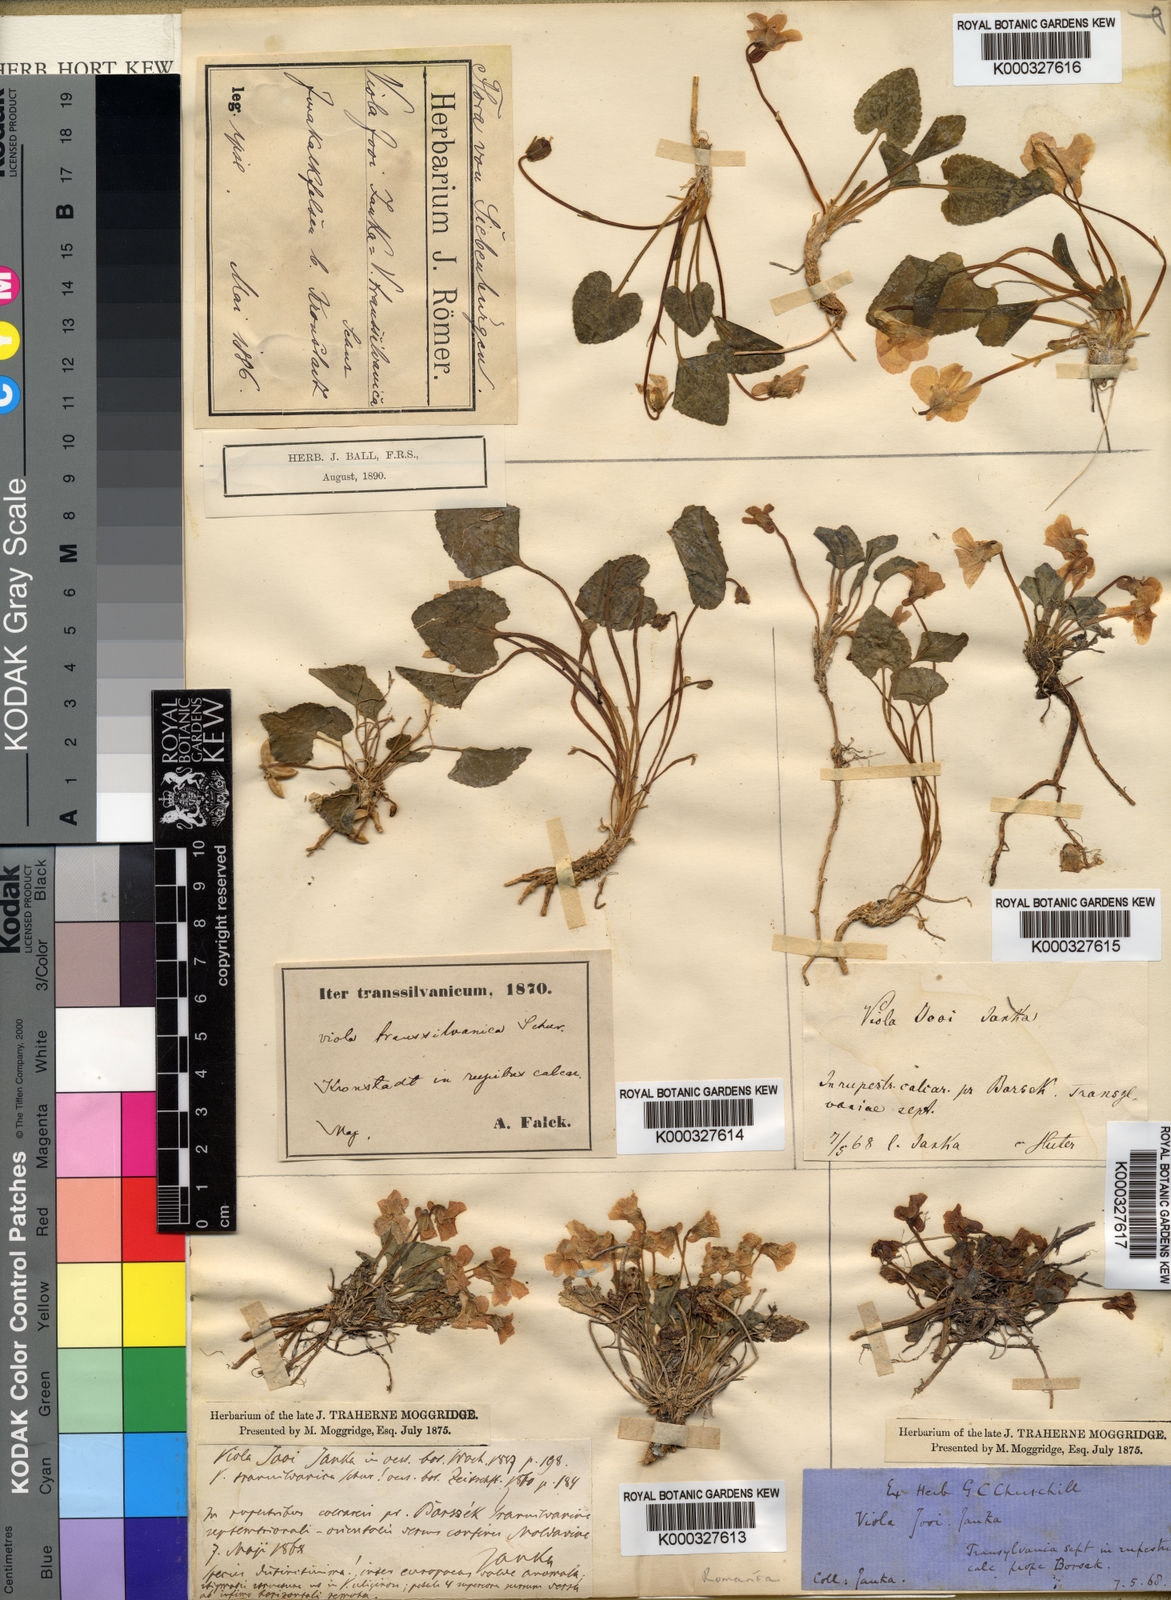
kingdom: Plantae
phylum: Tracheophyta
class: Magnoliopsida
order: Malpighiales
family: Violaceae
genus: Viola
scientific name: Viola jooi
